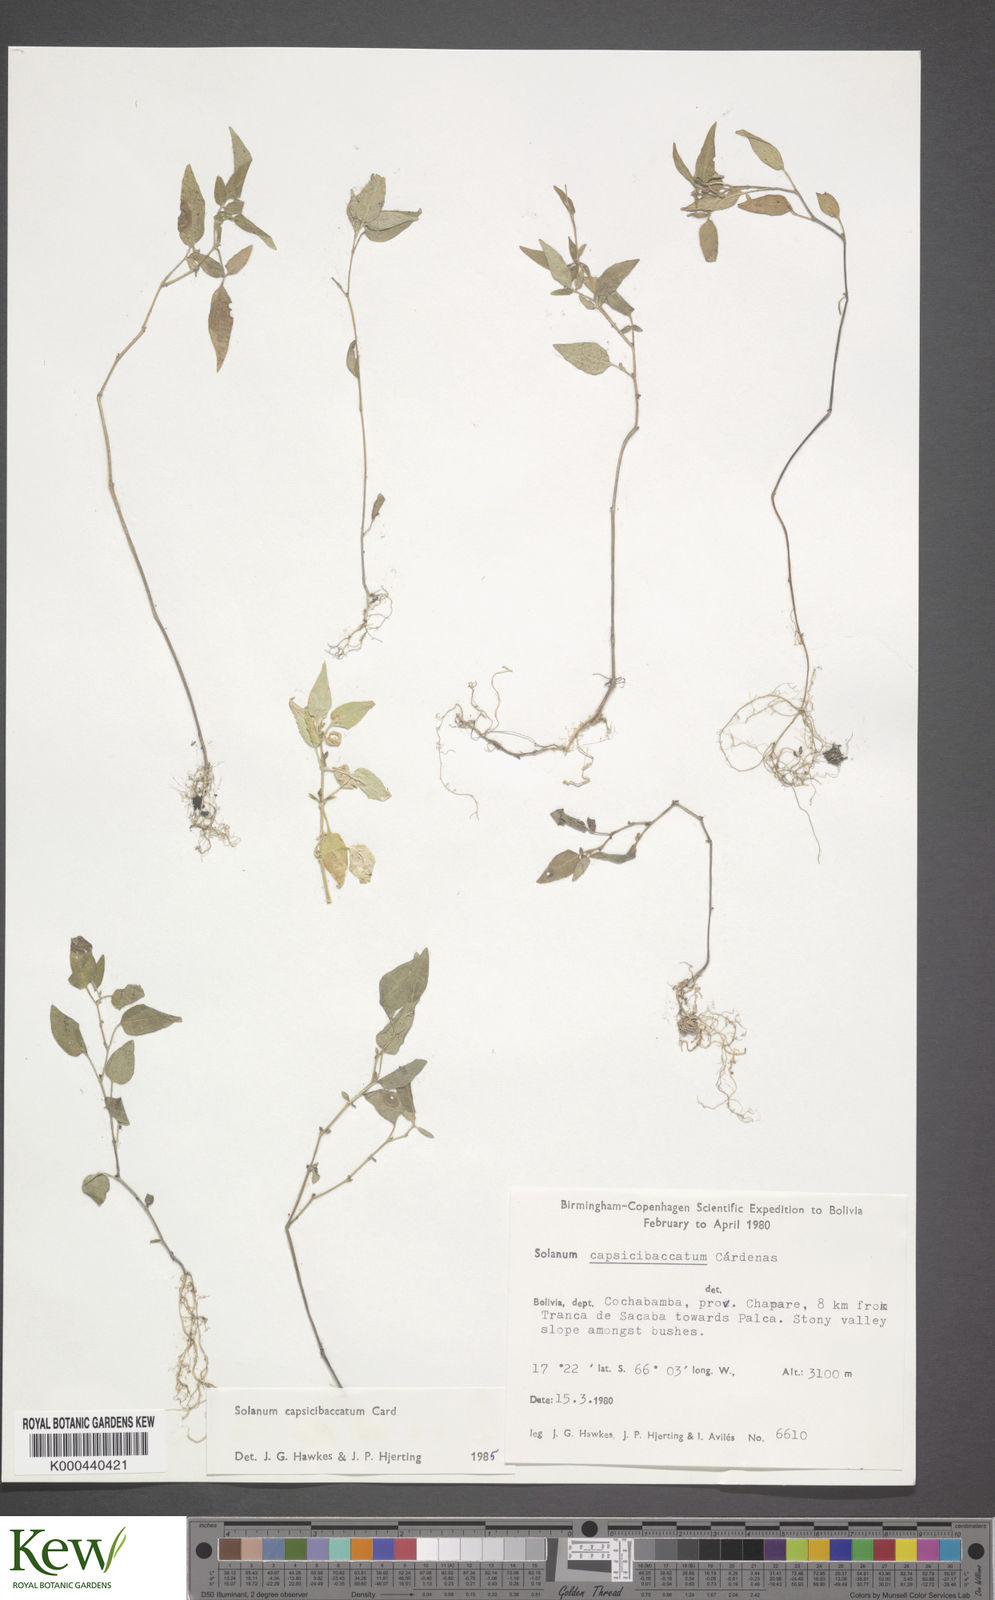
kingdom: Plantae
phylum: Tracheophyta
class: Magnoliopsida
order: Solanales
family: Solanaceae
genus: Solanum
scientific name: Solanum stipuloideum
